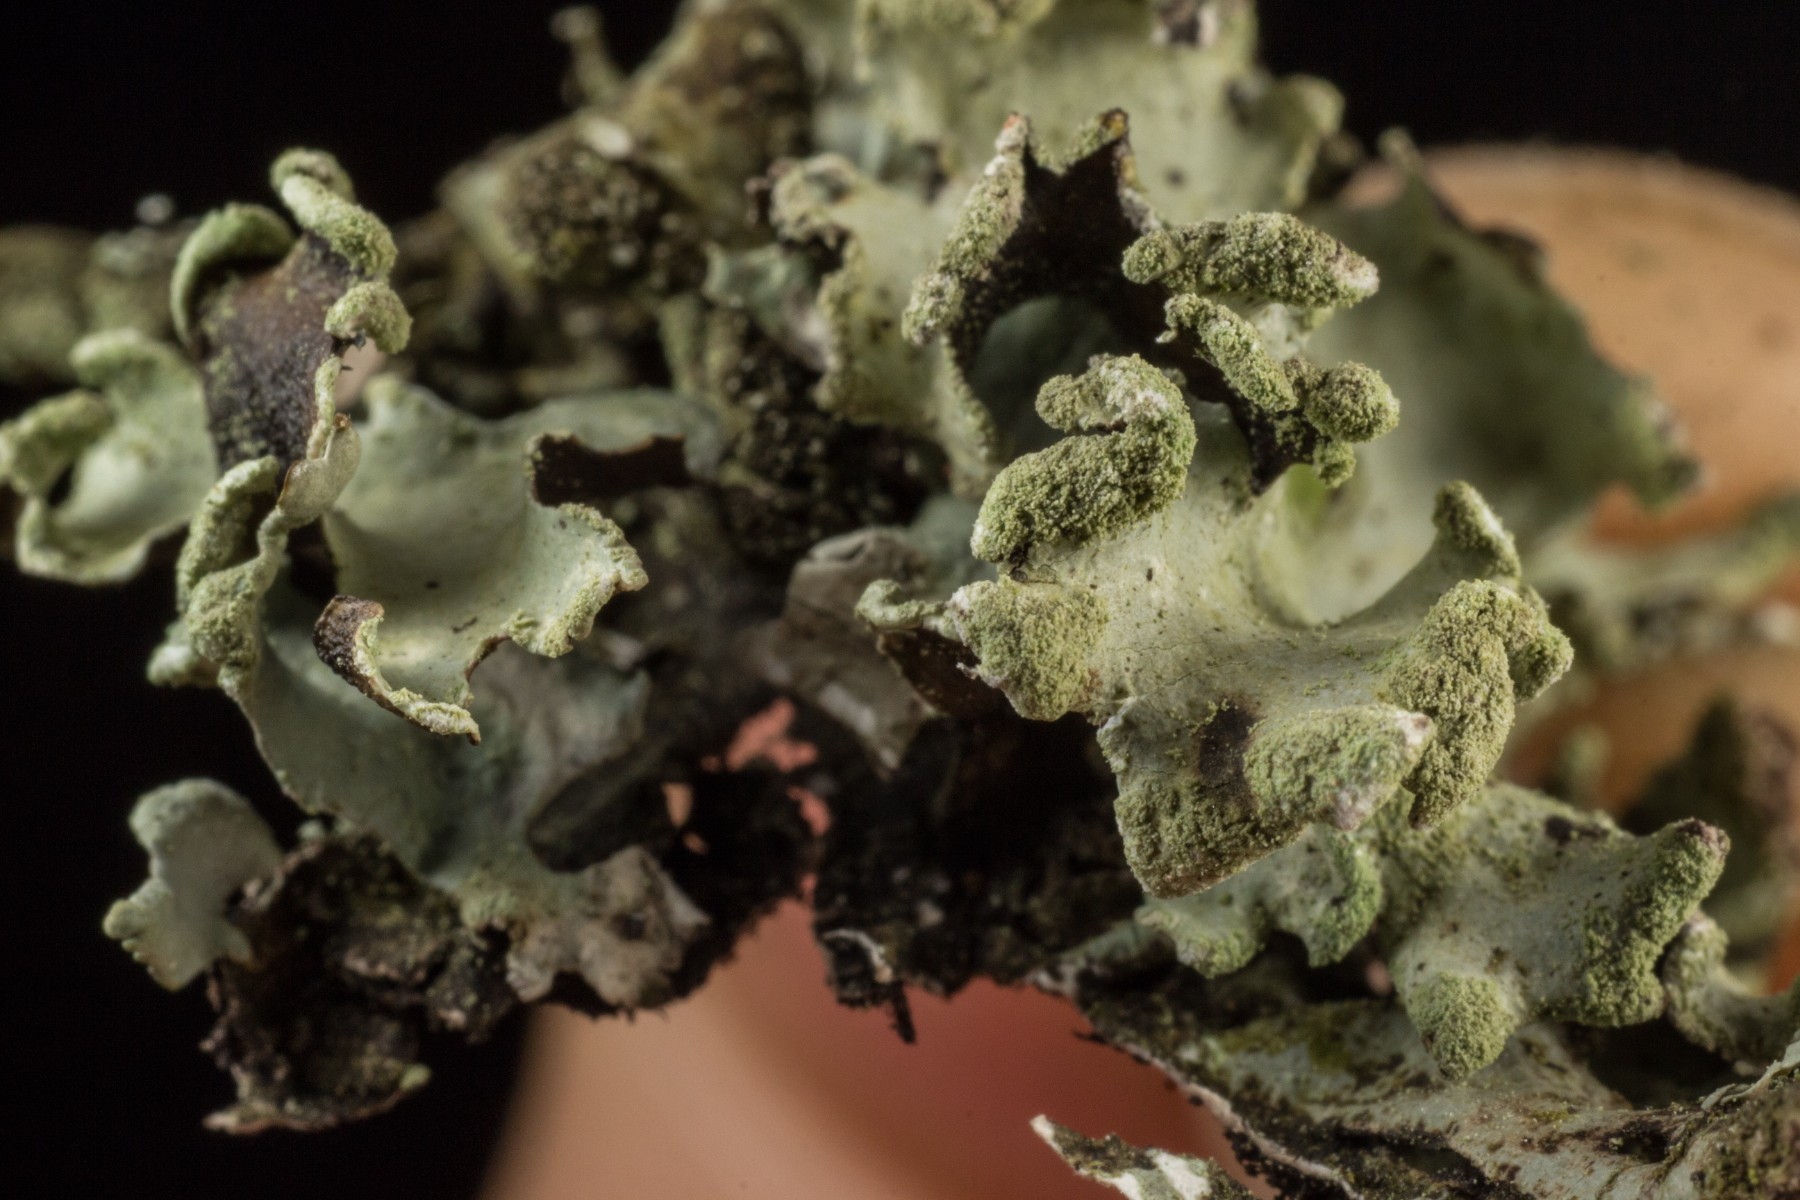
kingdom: Fungi
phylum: Ascomycota
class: Lecanoromycetes
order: Lecanorales
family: Parmeliaceae
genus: Hypotrachyna
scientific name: Hypotrachyna revoluta
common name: bleggrå skållav
